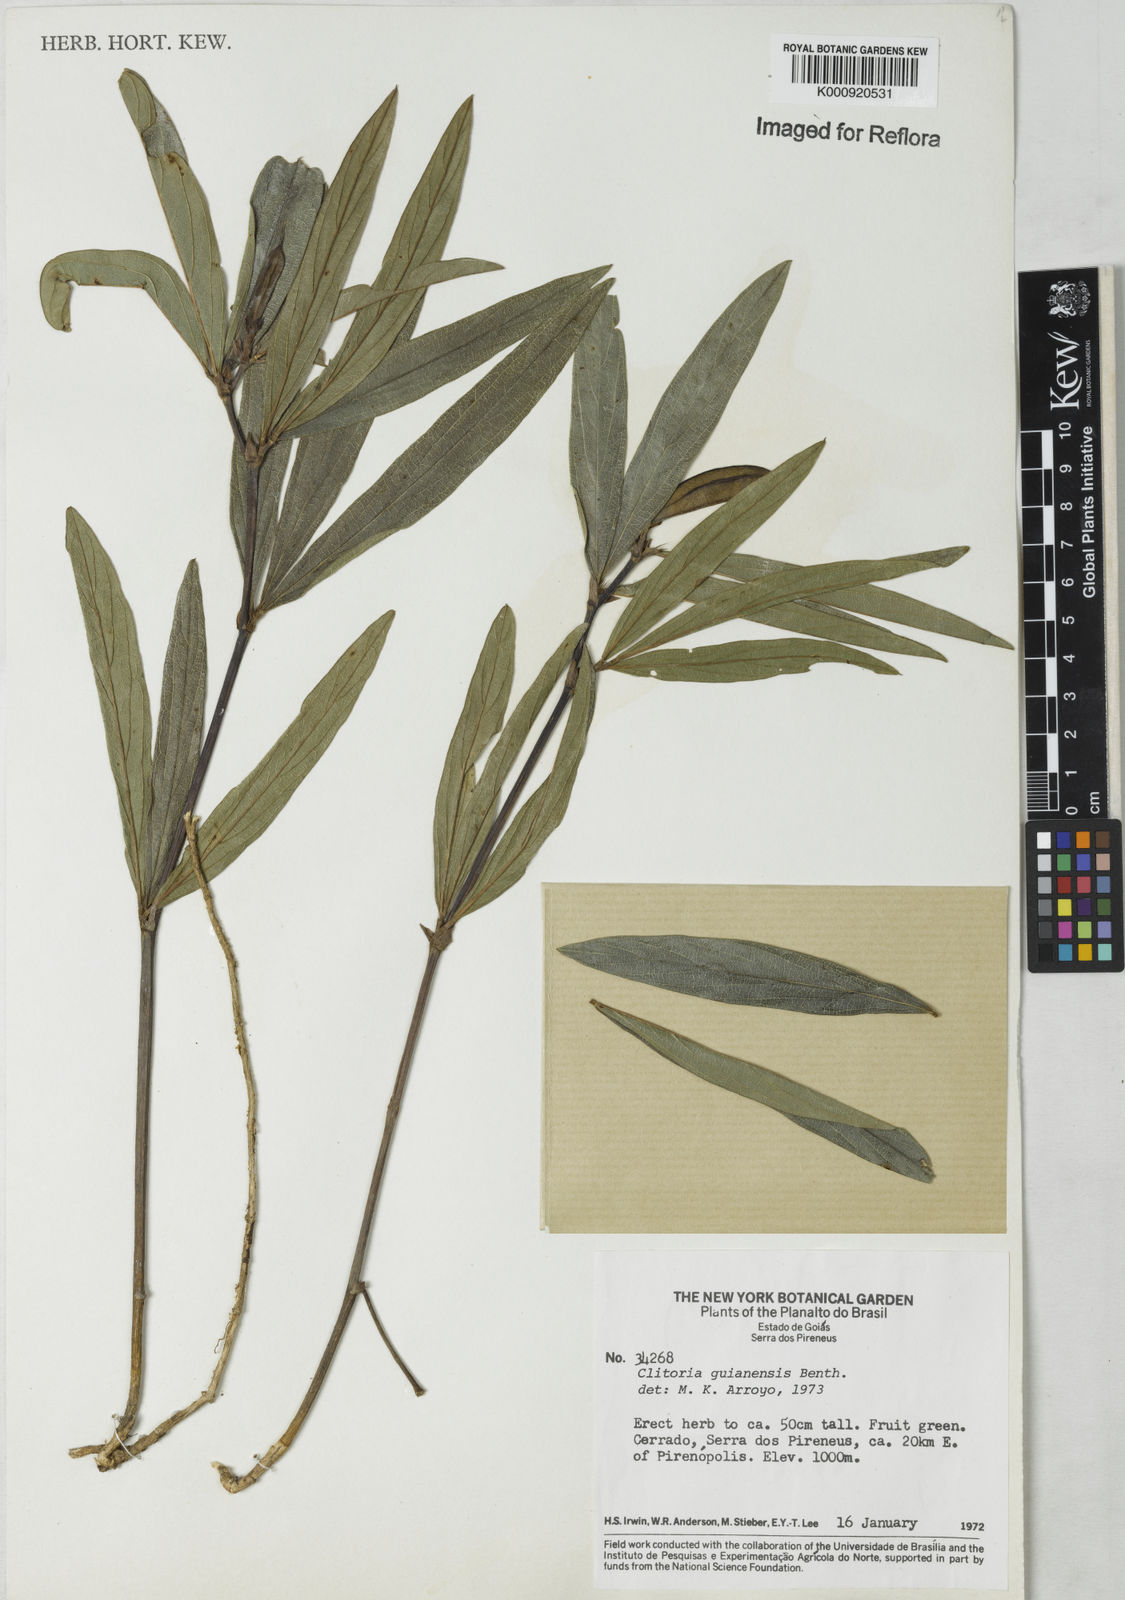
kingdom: Plantae
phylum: Tracheophyta
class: Magnoliopsida
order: Fabales
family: Fabaceae
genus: Clitoria
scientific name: Clitoria guianensis
